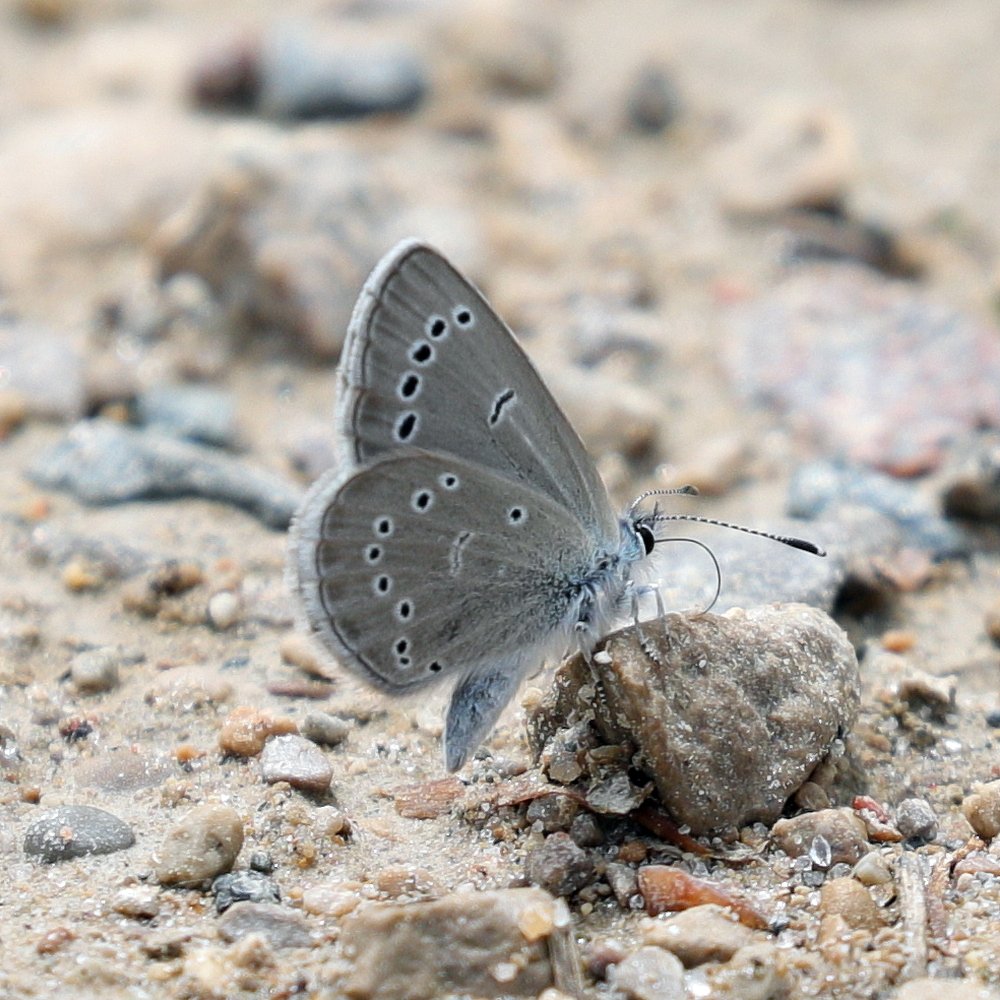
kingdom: Animalia
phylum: Arthropoda
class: Insecta
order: Lepidoptera
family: Lycaenidae
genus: Glaucopsyche
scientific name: Glaucopsyche lygdamus
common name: Silvery Blue
